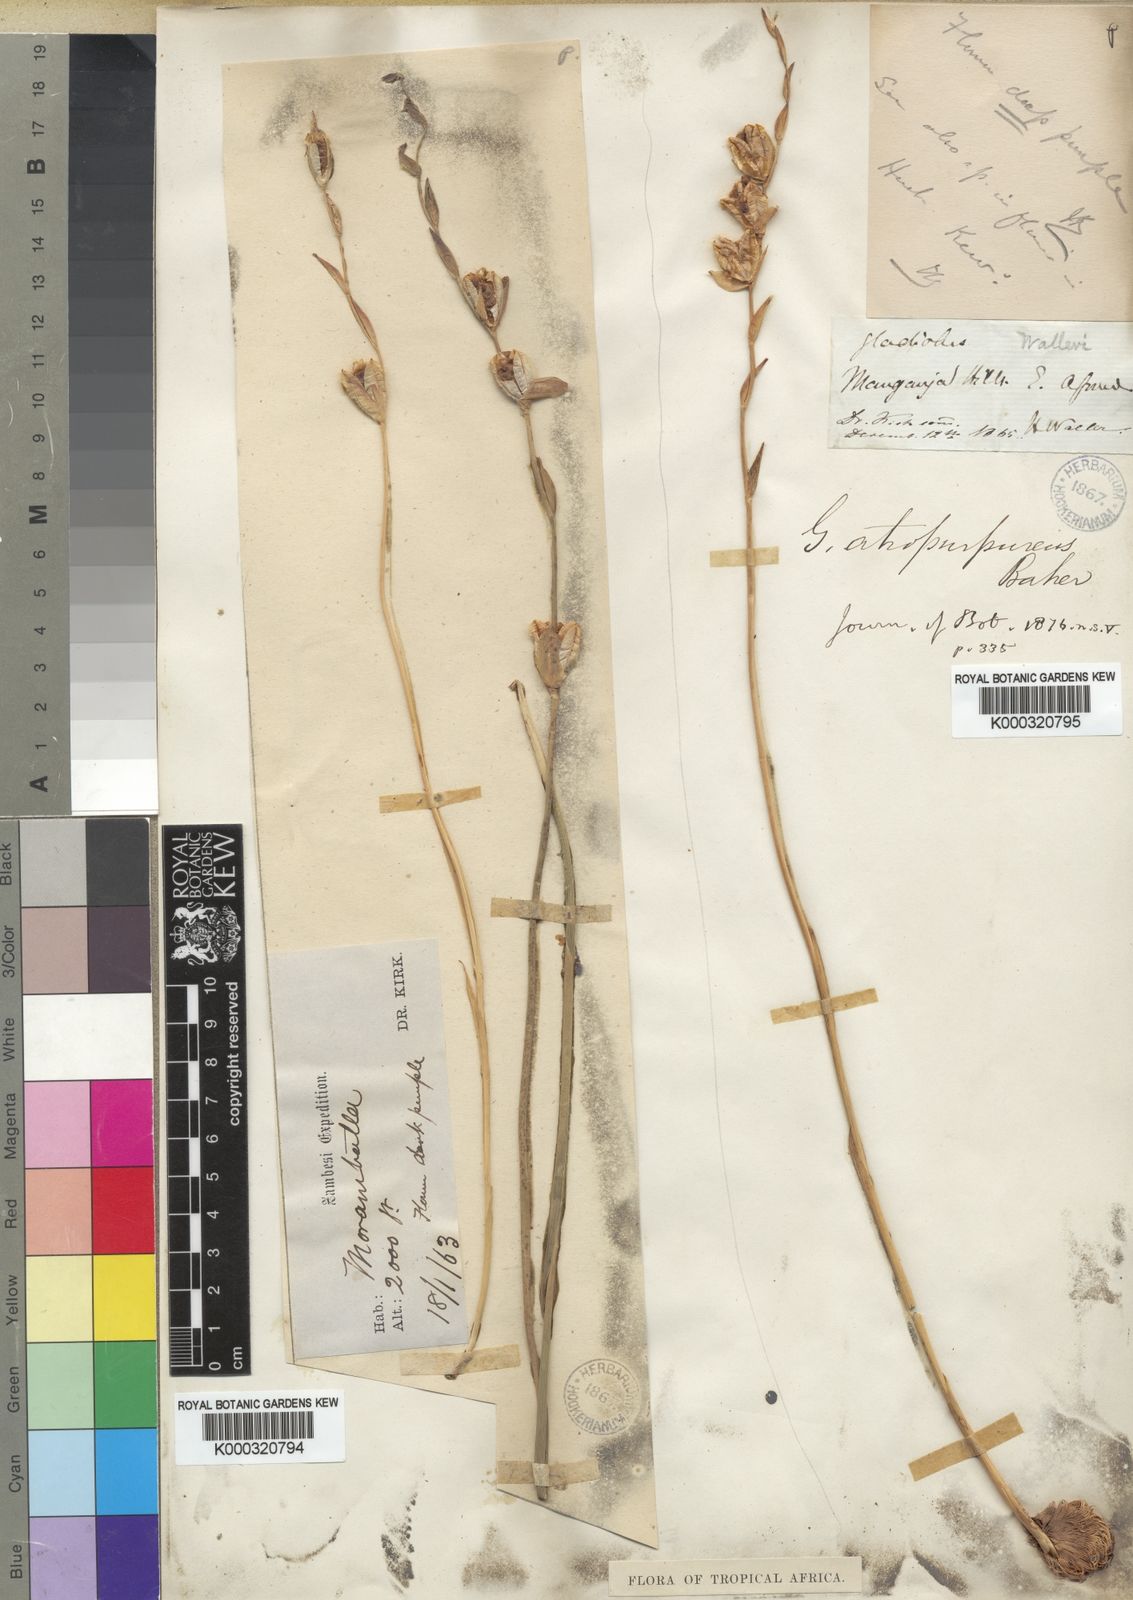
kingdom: Plantae
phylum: Tracheophyta
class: Liliopsida
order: Asparagales
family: Iridaceae
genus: Gladiolus
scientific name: Gladiolus atropurpureus
